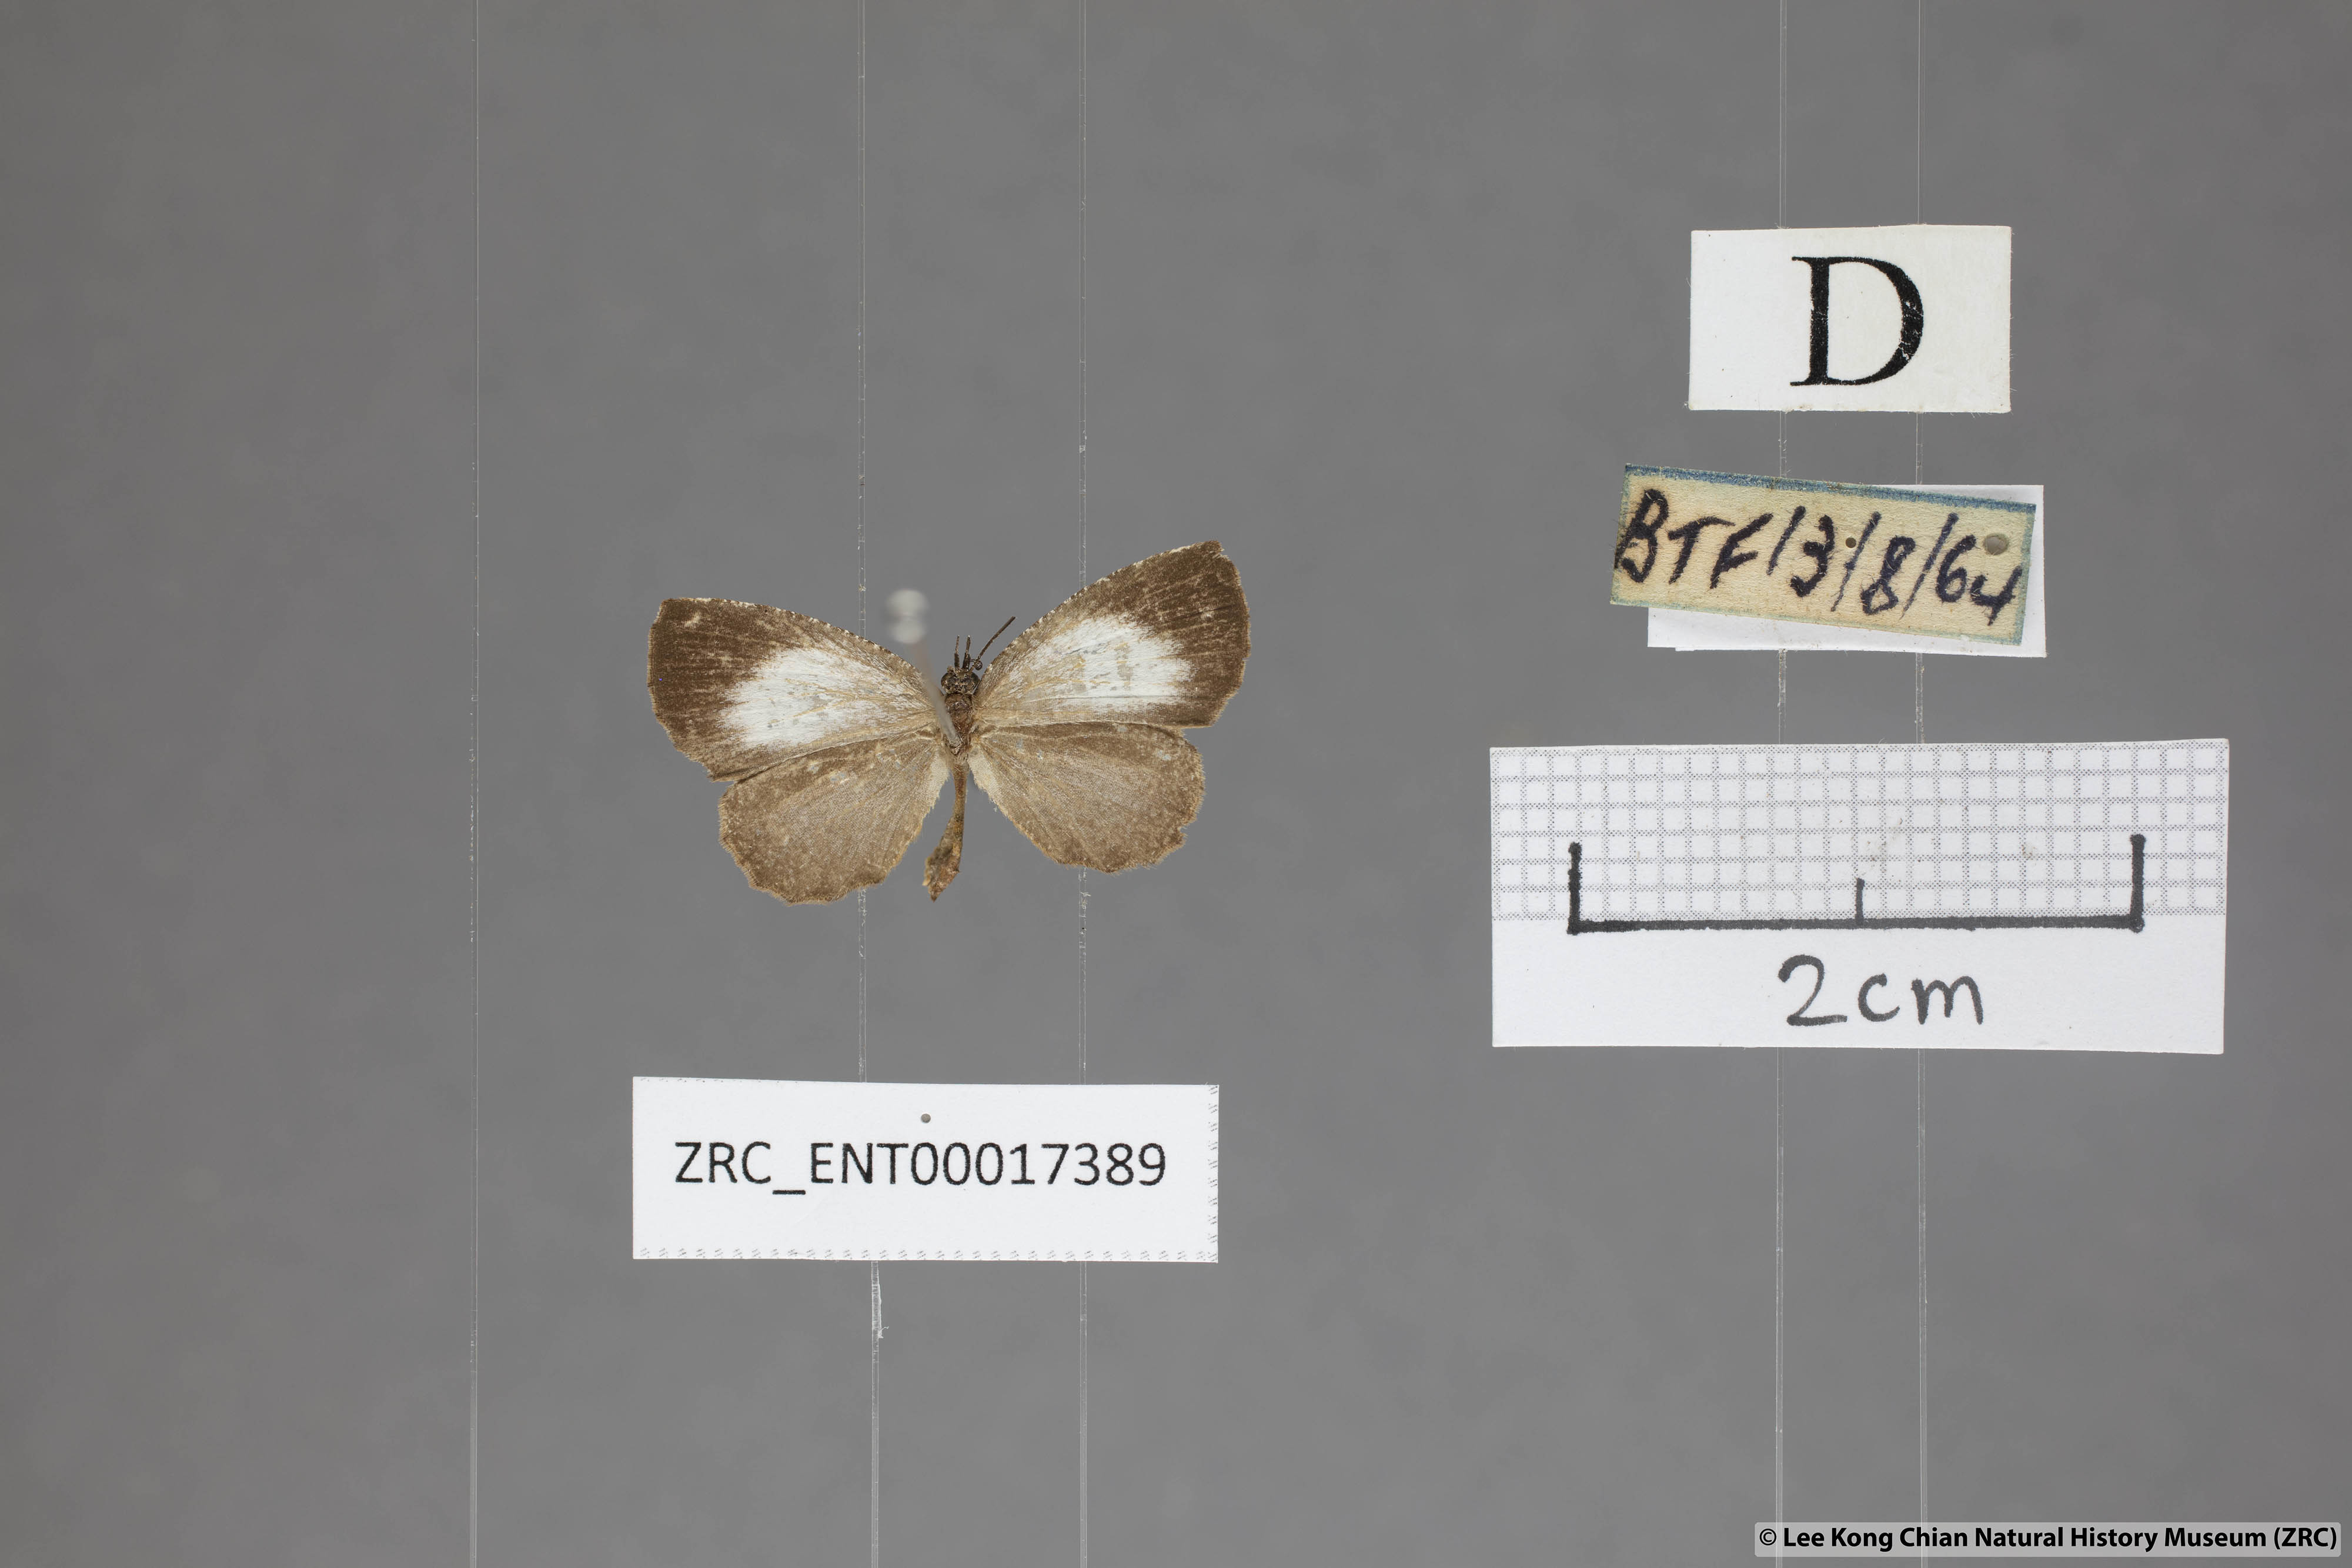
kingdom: Animalia
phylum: Arthropoda
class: Insecta
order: Lepidoptera
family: Lycaenidae
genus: Logania
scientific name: Logania marmorata
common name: Pale mottle
